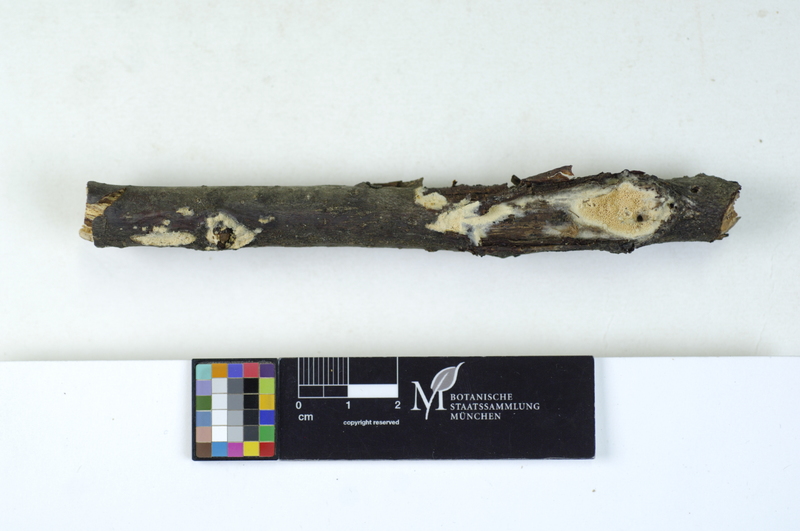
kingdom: Fungi
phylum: Basidiomycota
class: Agaricomycetes
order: Hymenochaetales
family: Schizoporaceae
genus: Xylodon
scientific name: Xylodon raduloides
